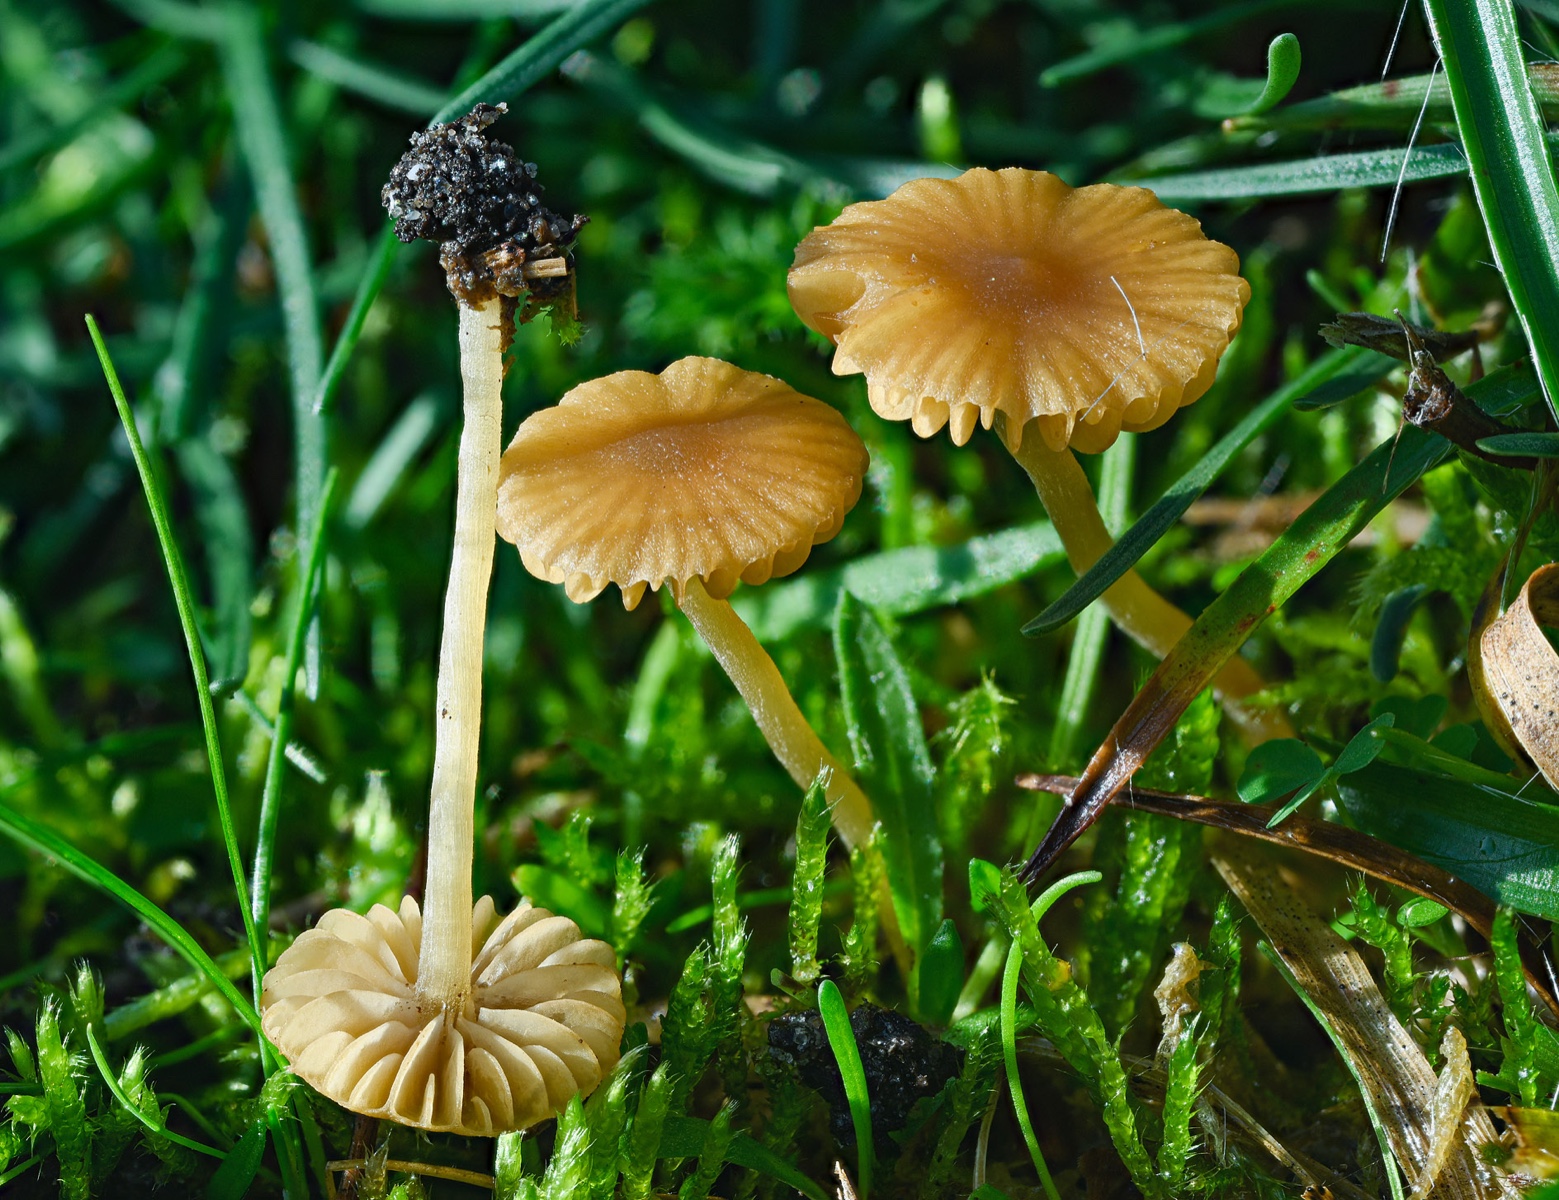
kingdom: Fungi
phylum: Basidiomycota
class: Agaricomycetes
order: Agaricales
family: Hymenogastraceae
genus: Galerina
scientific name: Galerina graminea
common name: plæne-hjelmhat
